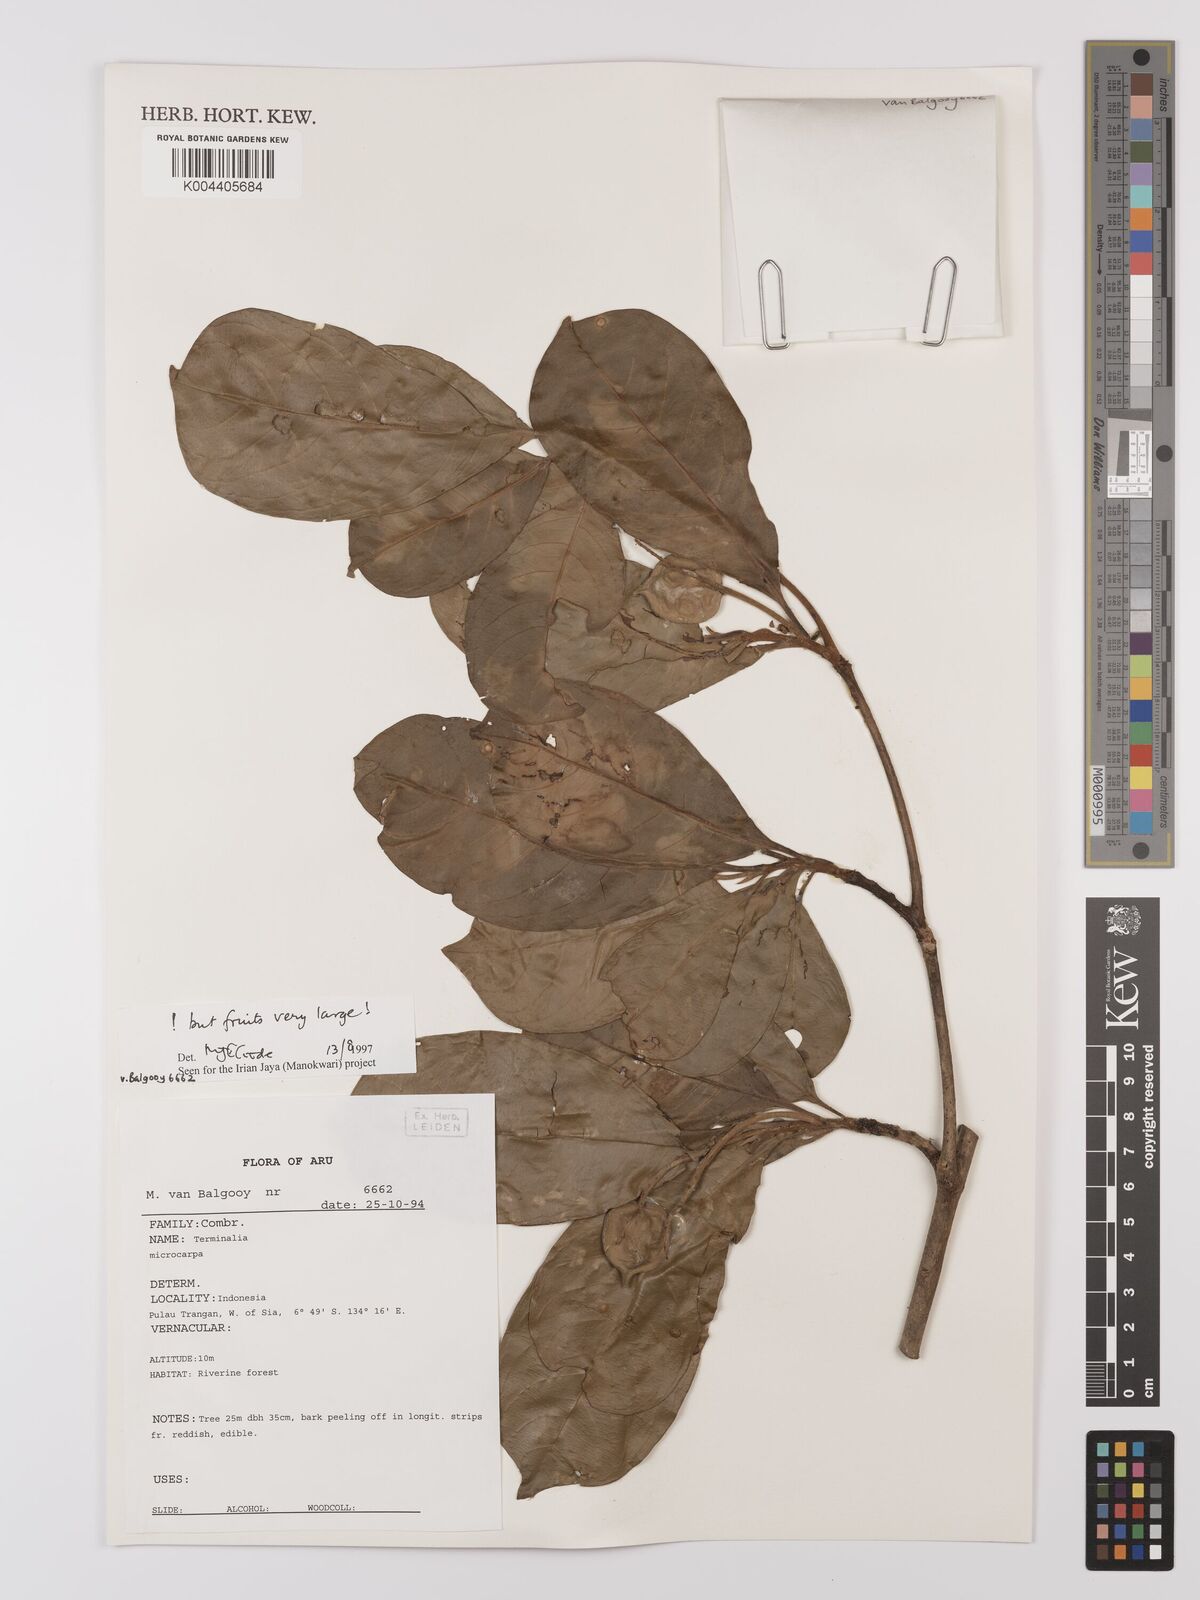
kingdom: Plantae
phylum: Tracheophyta
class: Magnoliopsida
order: Myrtales
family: Combretaceae
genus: Terminalia
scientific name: Terminalia
